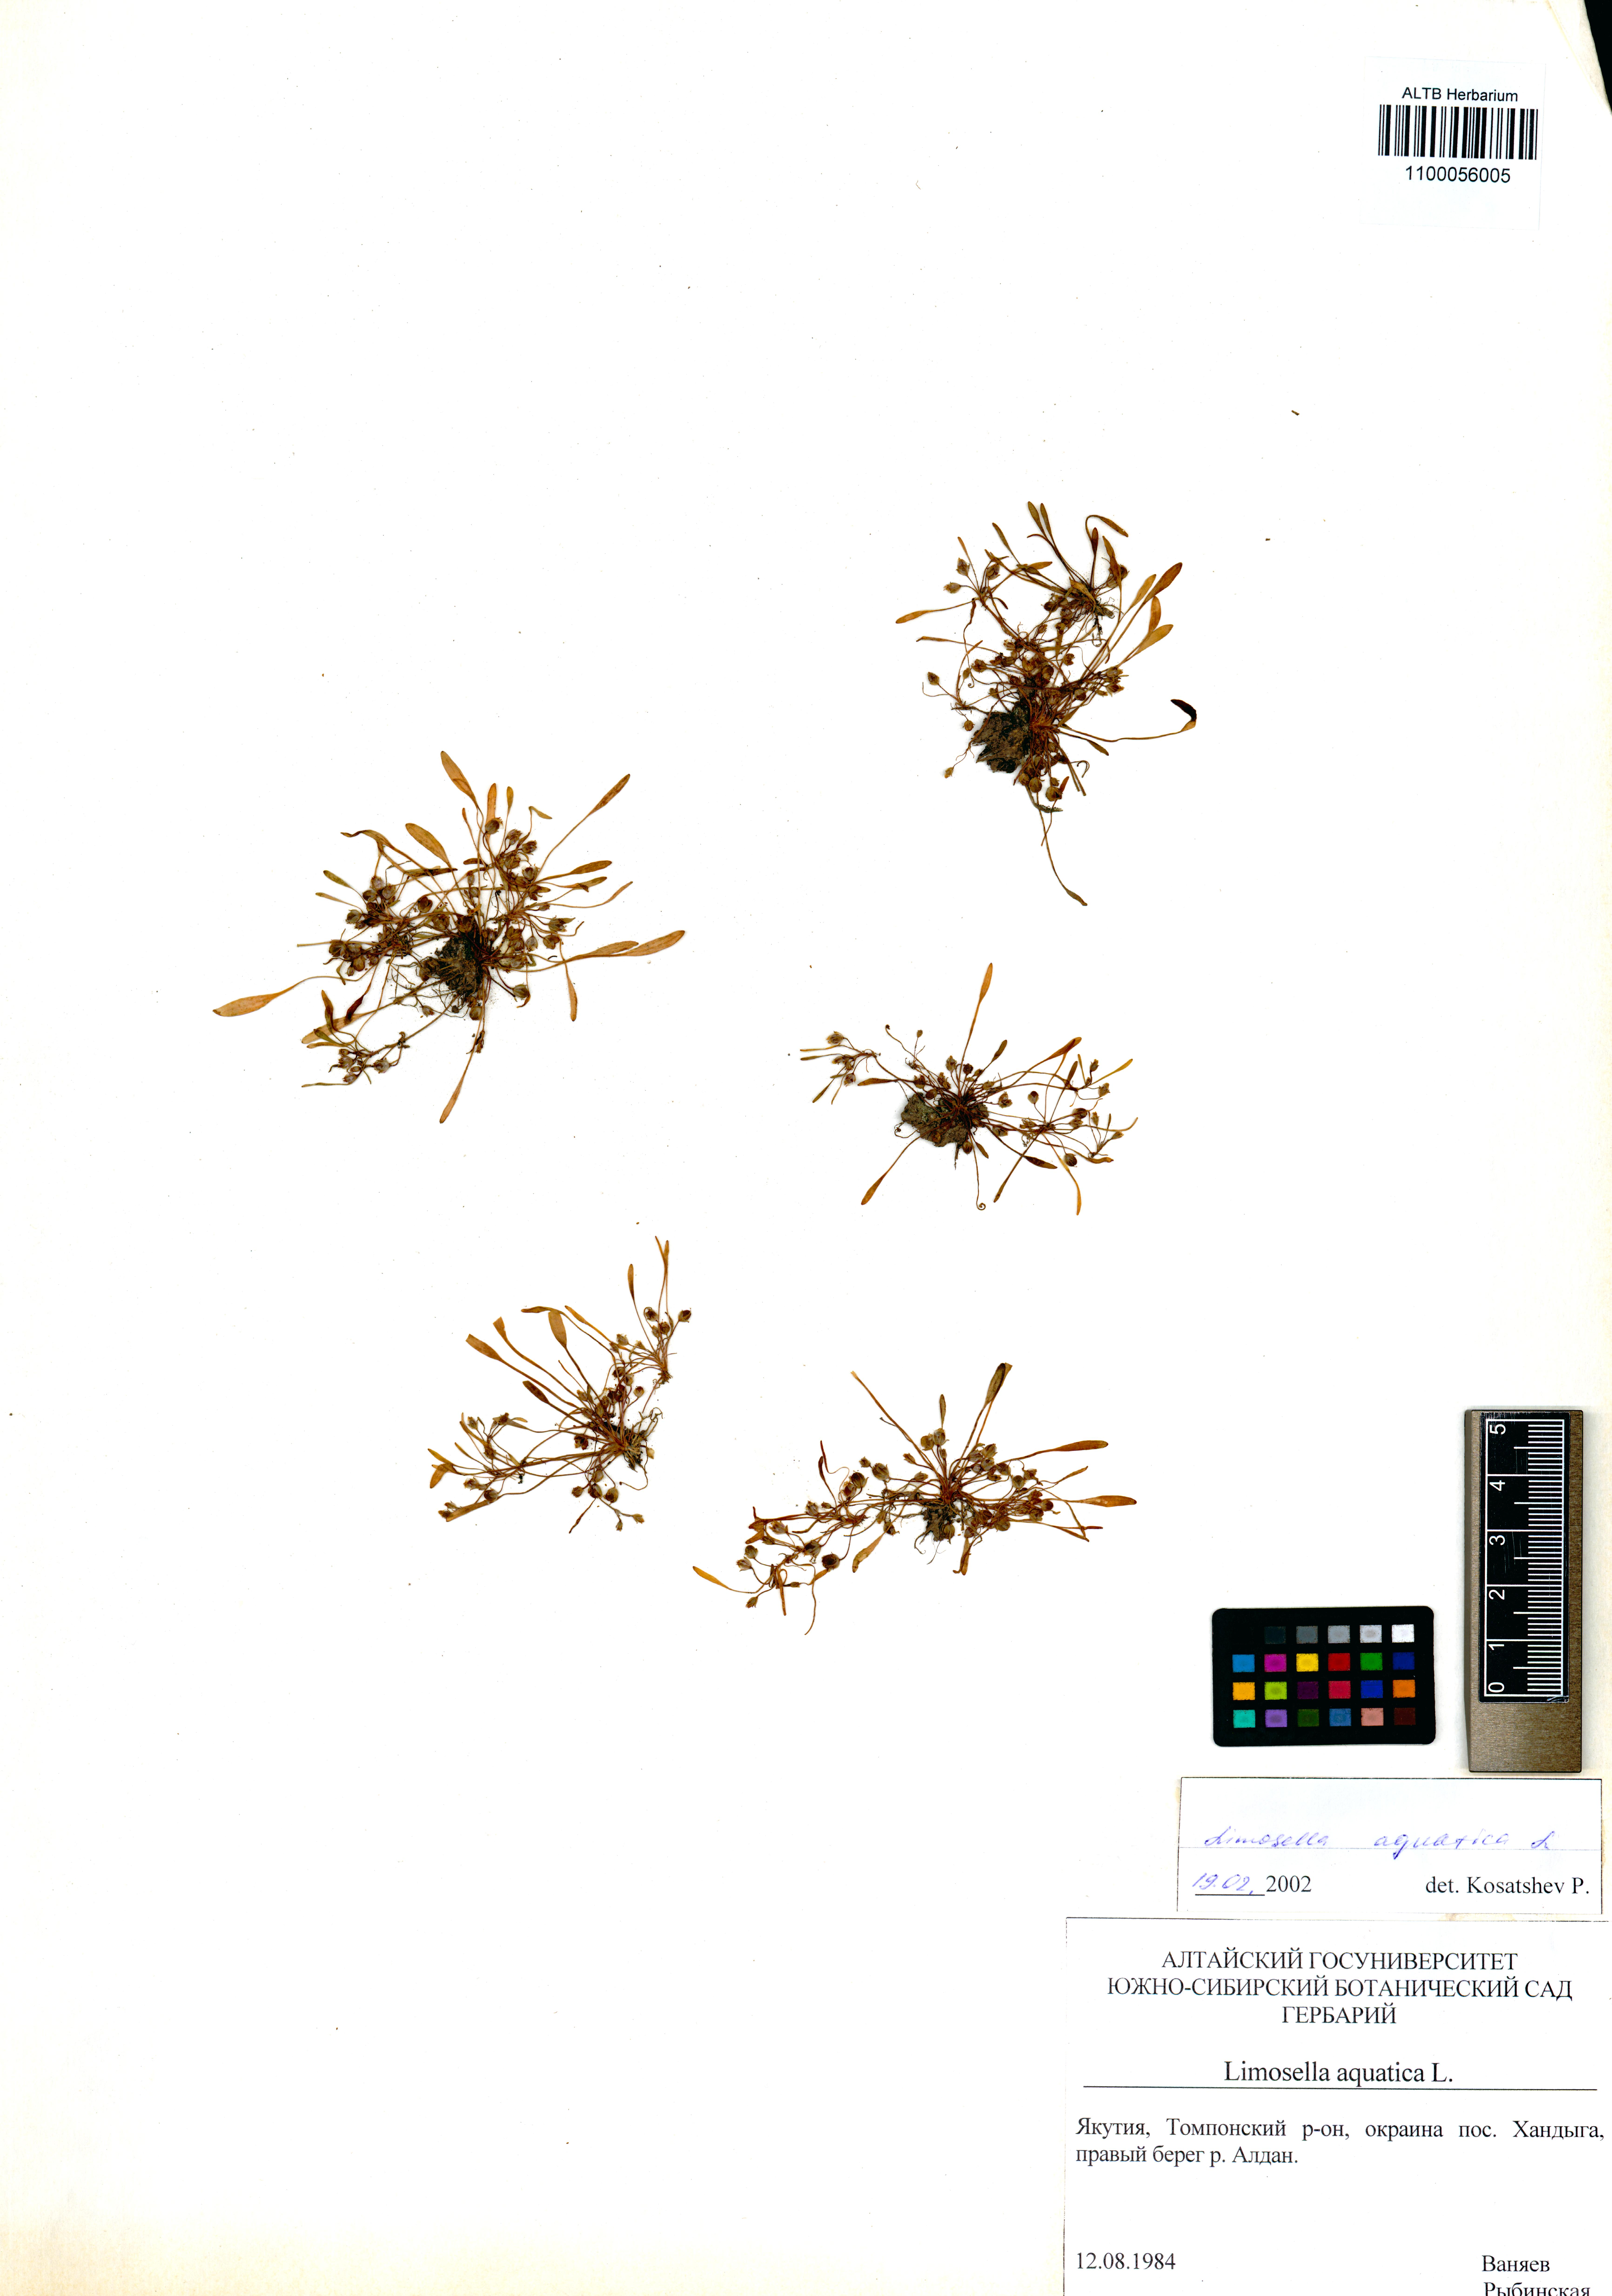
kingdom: Plantae
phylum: Tracheophyta
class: Magnoliopsida
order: Lamiales
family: Scrophulariaceae
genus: Limosella
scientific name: Limosella aquatica
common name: Mudwort
